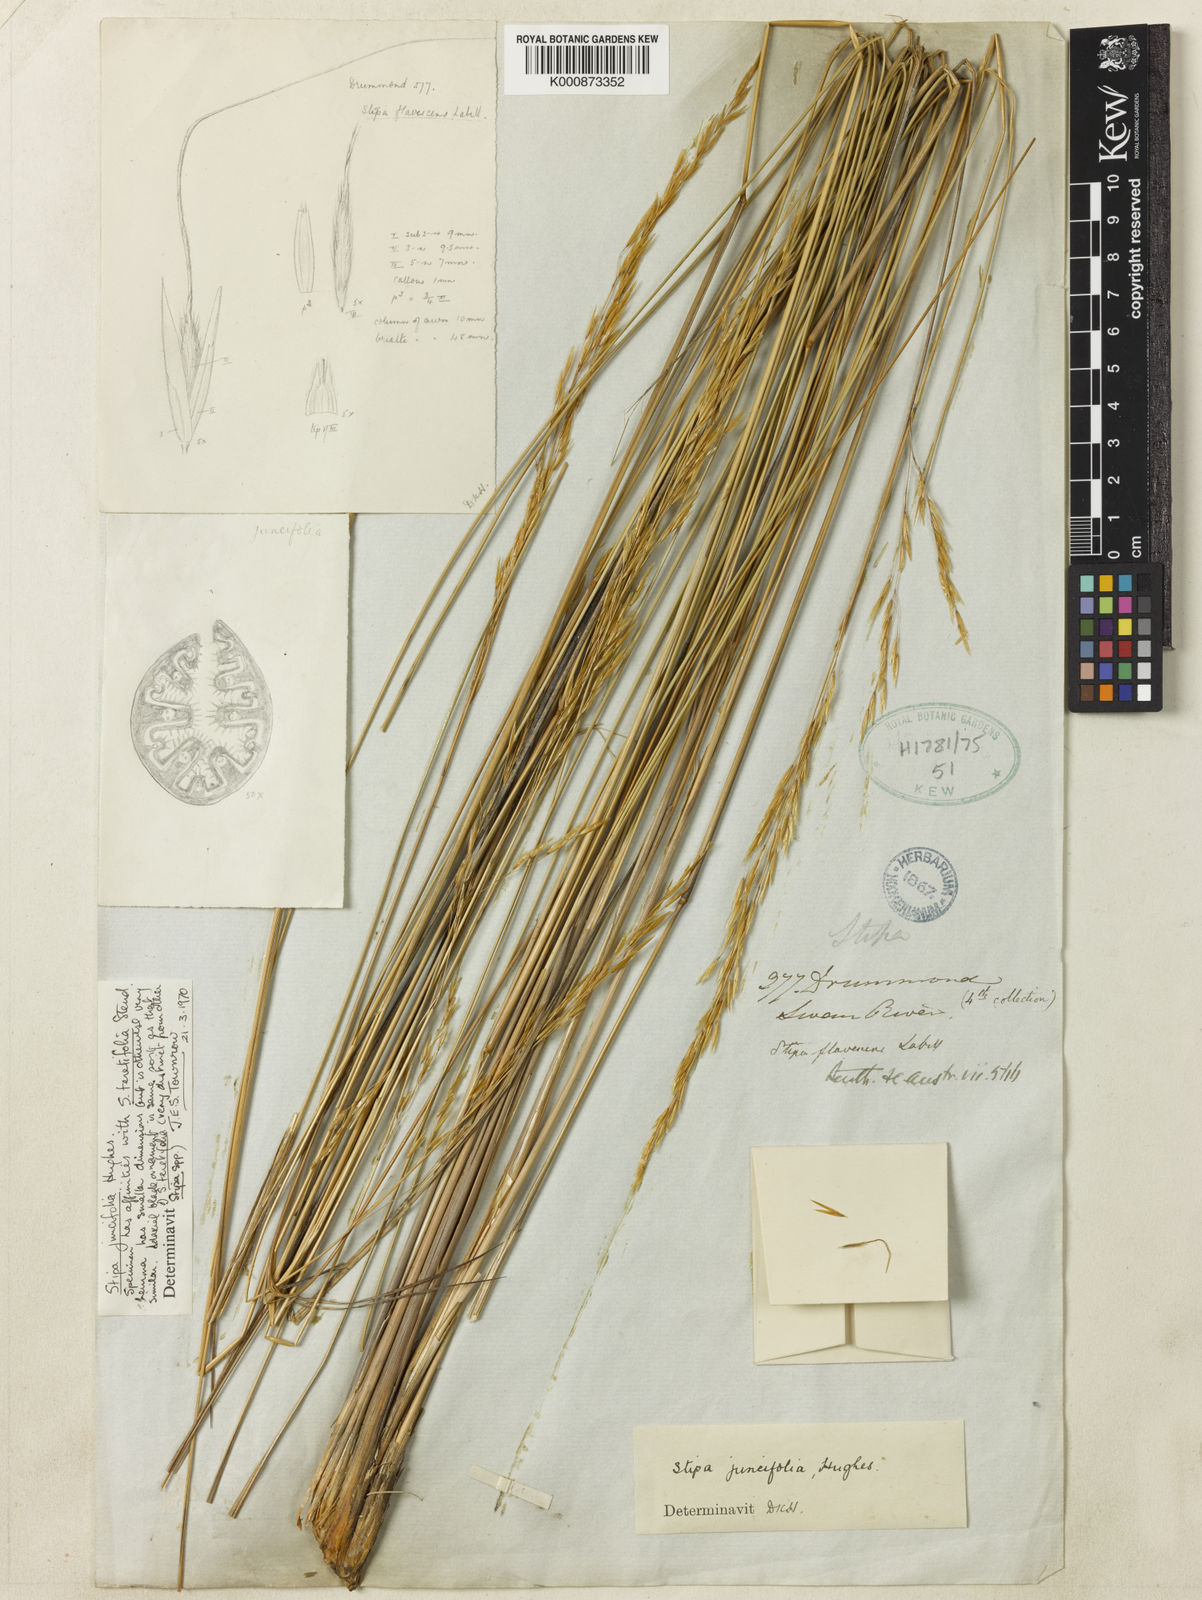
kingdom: Plantae
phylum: Tracheophyta
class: Liliopsida
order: Poales
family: Poaceae
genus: Austrostipa
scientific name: Austrostipa juncifolia
